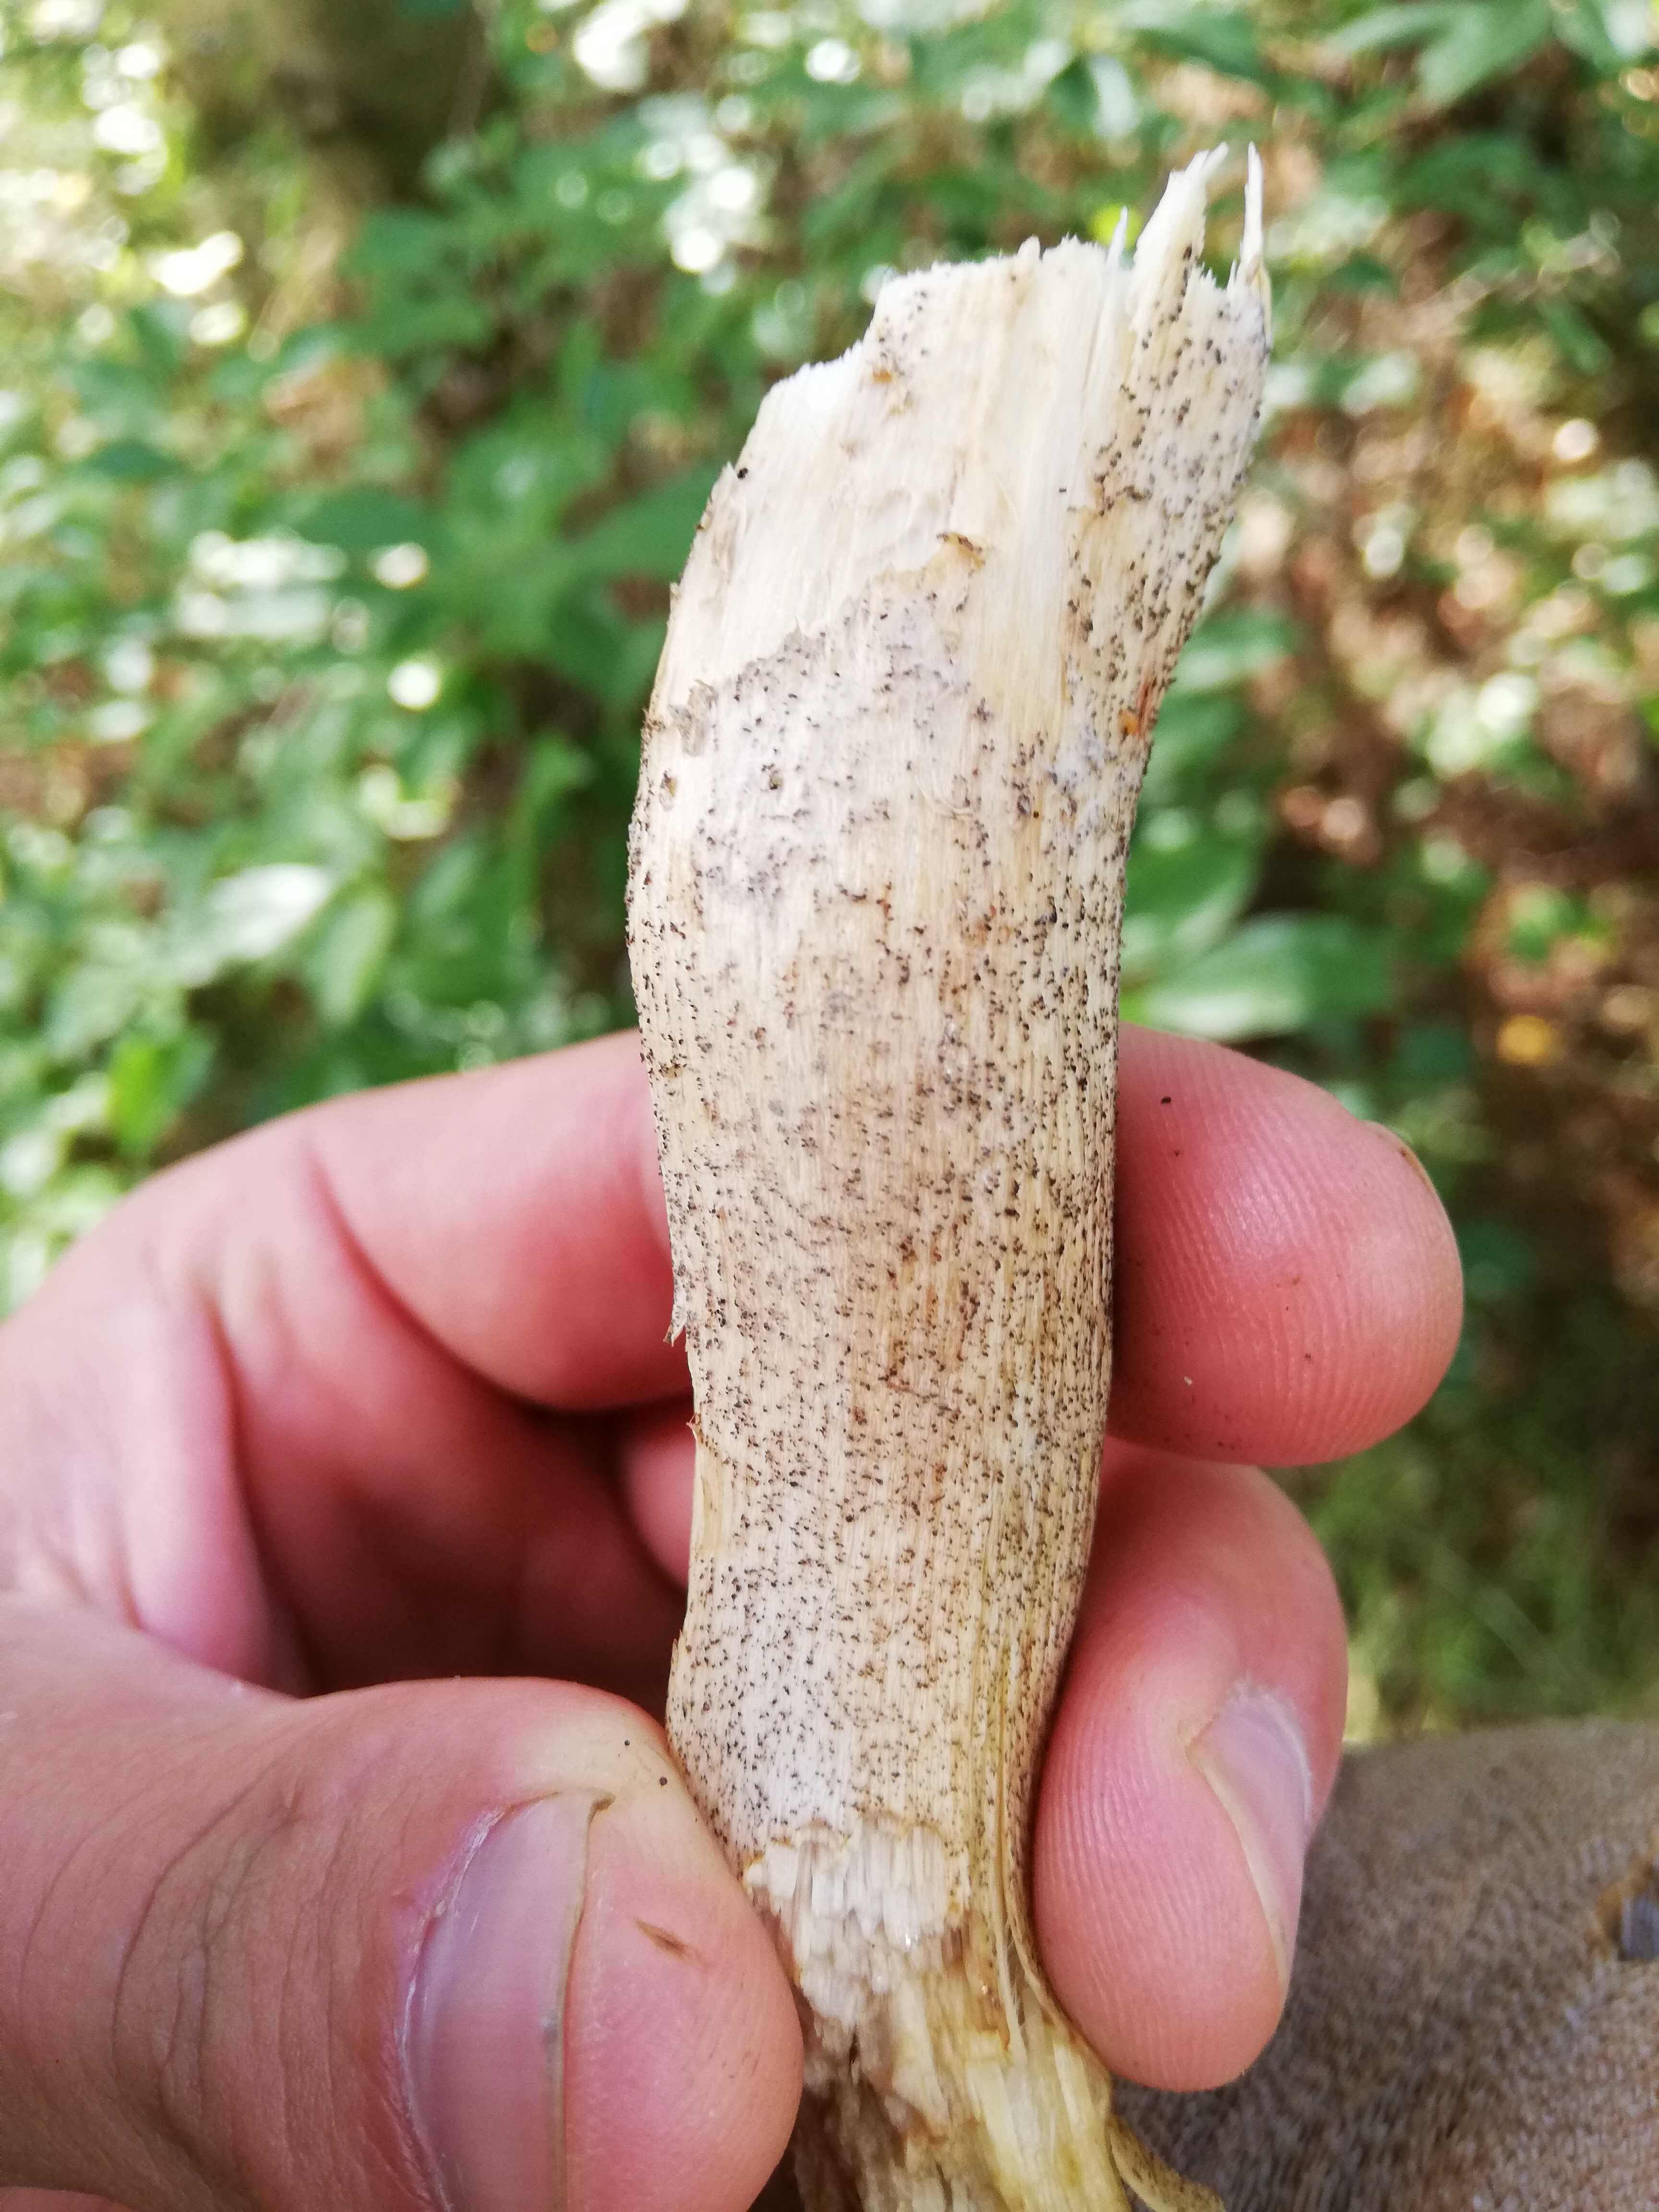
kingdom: Fungi
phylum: Basidiomycota
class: Agaricomycetes
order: Boletales
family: Boletaceae
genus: Leccinum
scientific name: Leccinum
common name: skælrørhat
